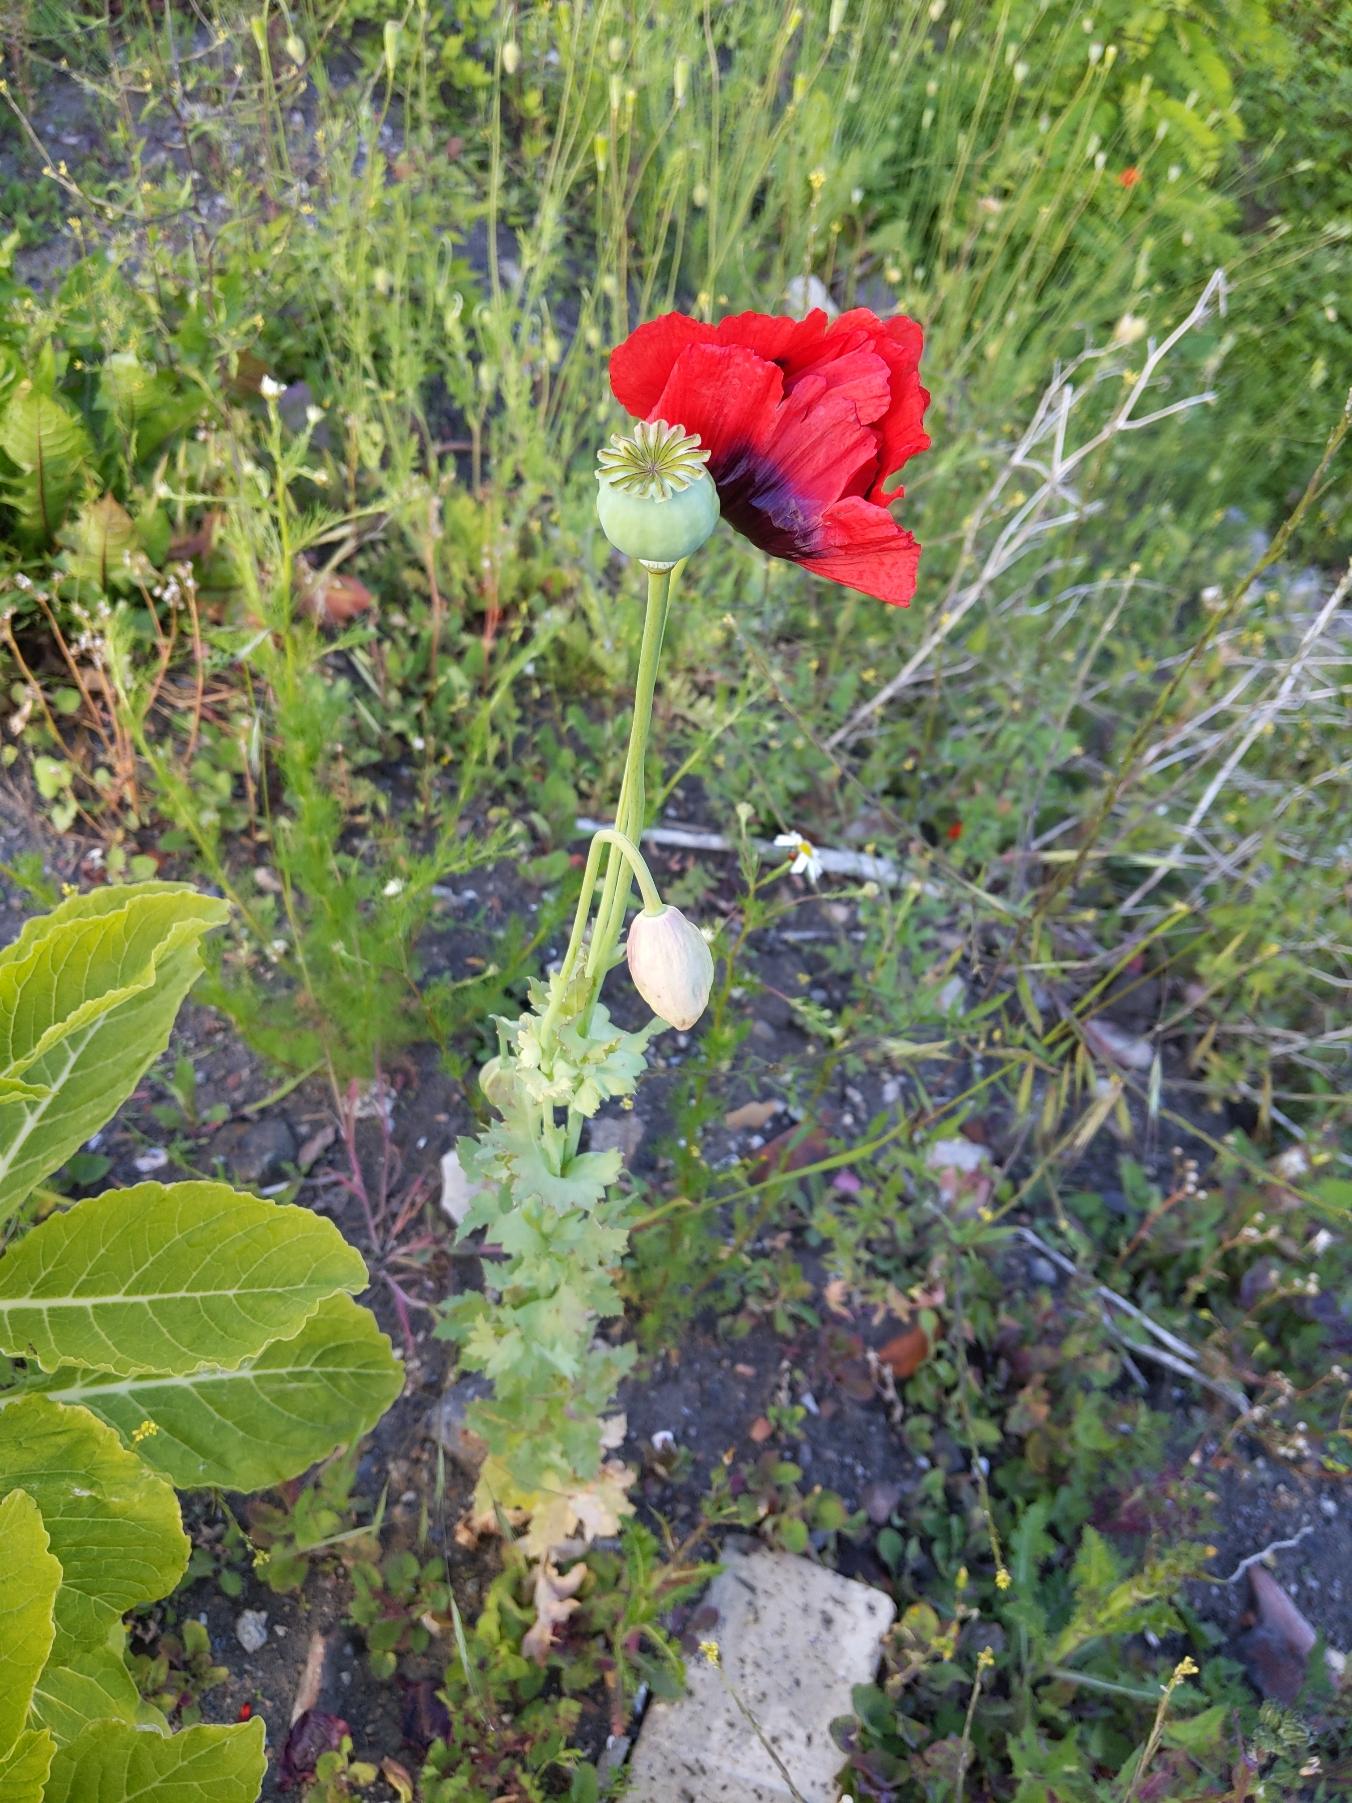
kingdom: Plantae
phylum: Tracheophyta
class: Magnoliopsida
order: Ranunculales
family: Papaveraceae
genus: Papaver
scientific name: Papaver somniferum
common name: Opium-valmue
